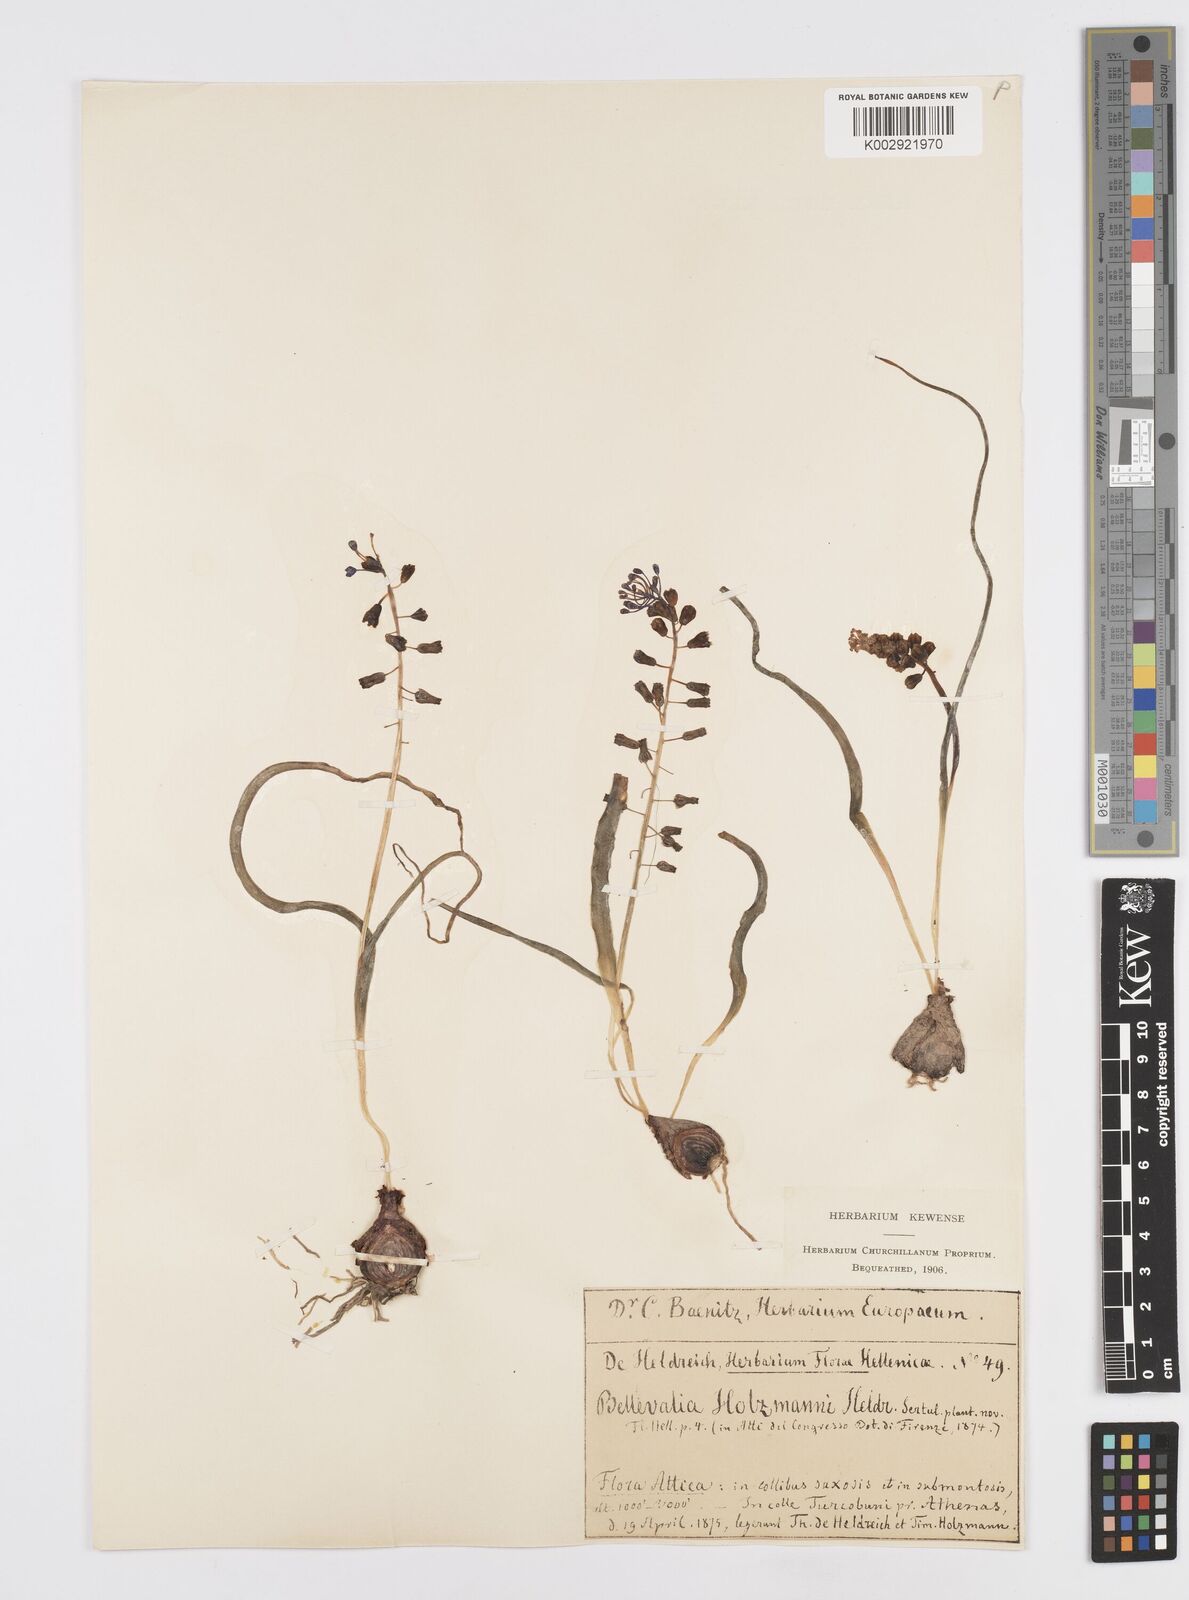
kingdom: Plantae
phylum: Tracheophyta
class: Liliopsida
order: Asparagales
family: Asparagaceae
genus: Muscari
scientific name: Muscari comosum
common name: Tassel hyacinth
